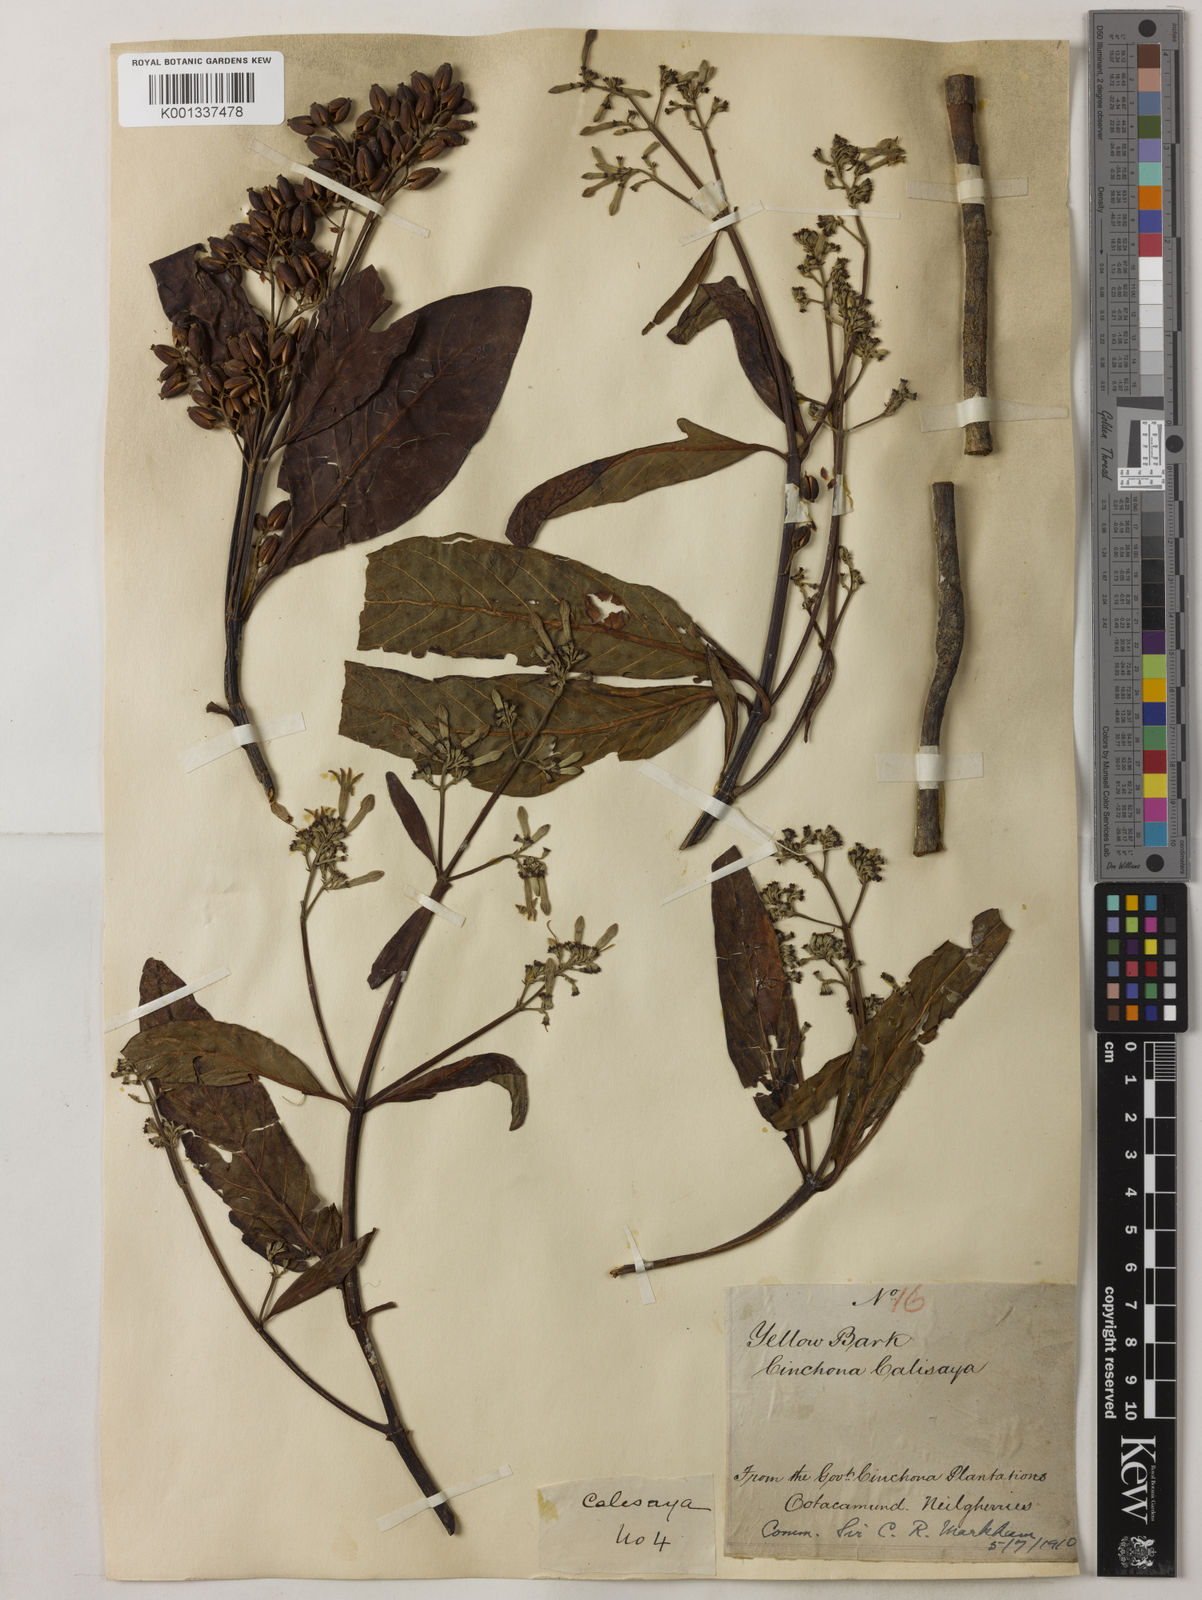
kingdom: Plantae
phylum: Tracheophyta
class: Magnoliopsida
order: Gentianales
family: Rubiaceae
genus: Cinchona
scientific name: Cinchona calisaya
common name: Ledgerbark
